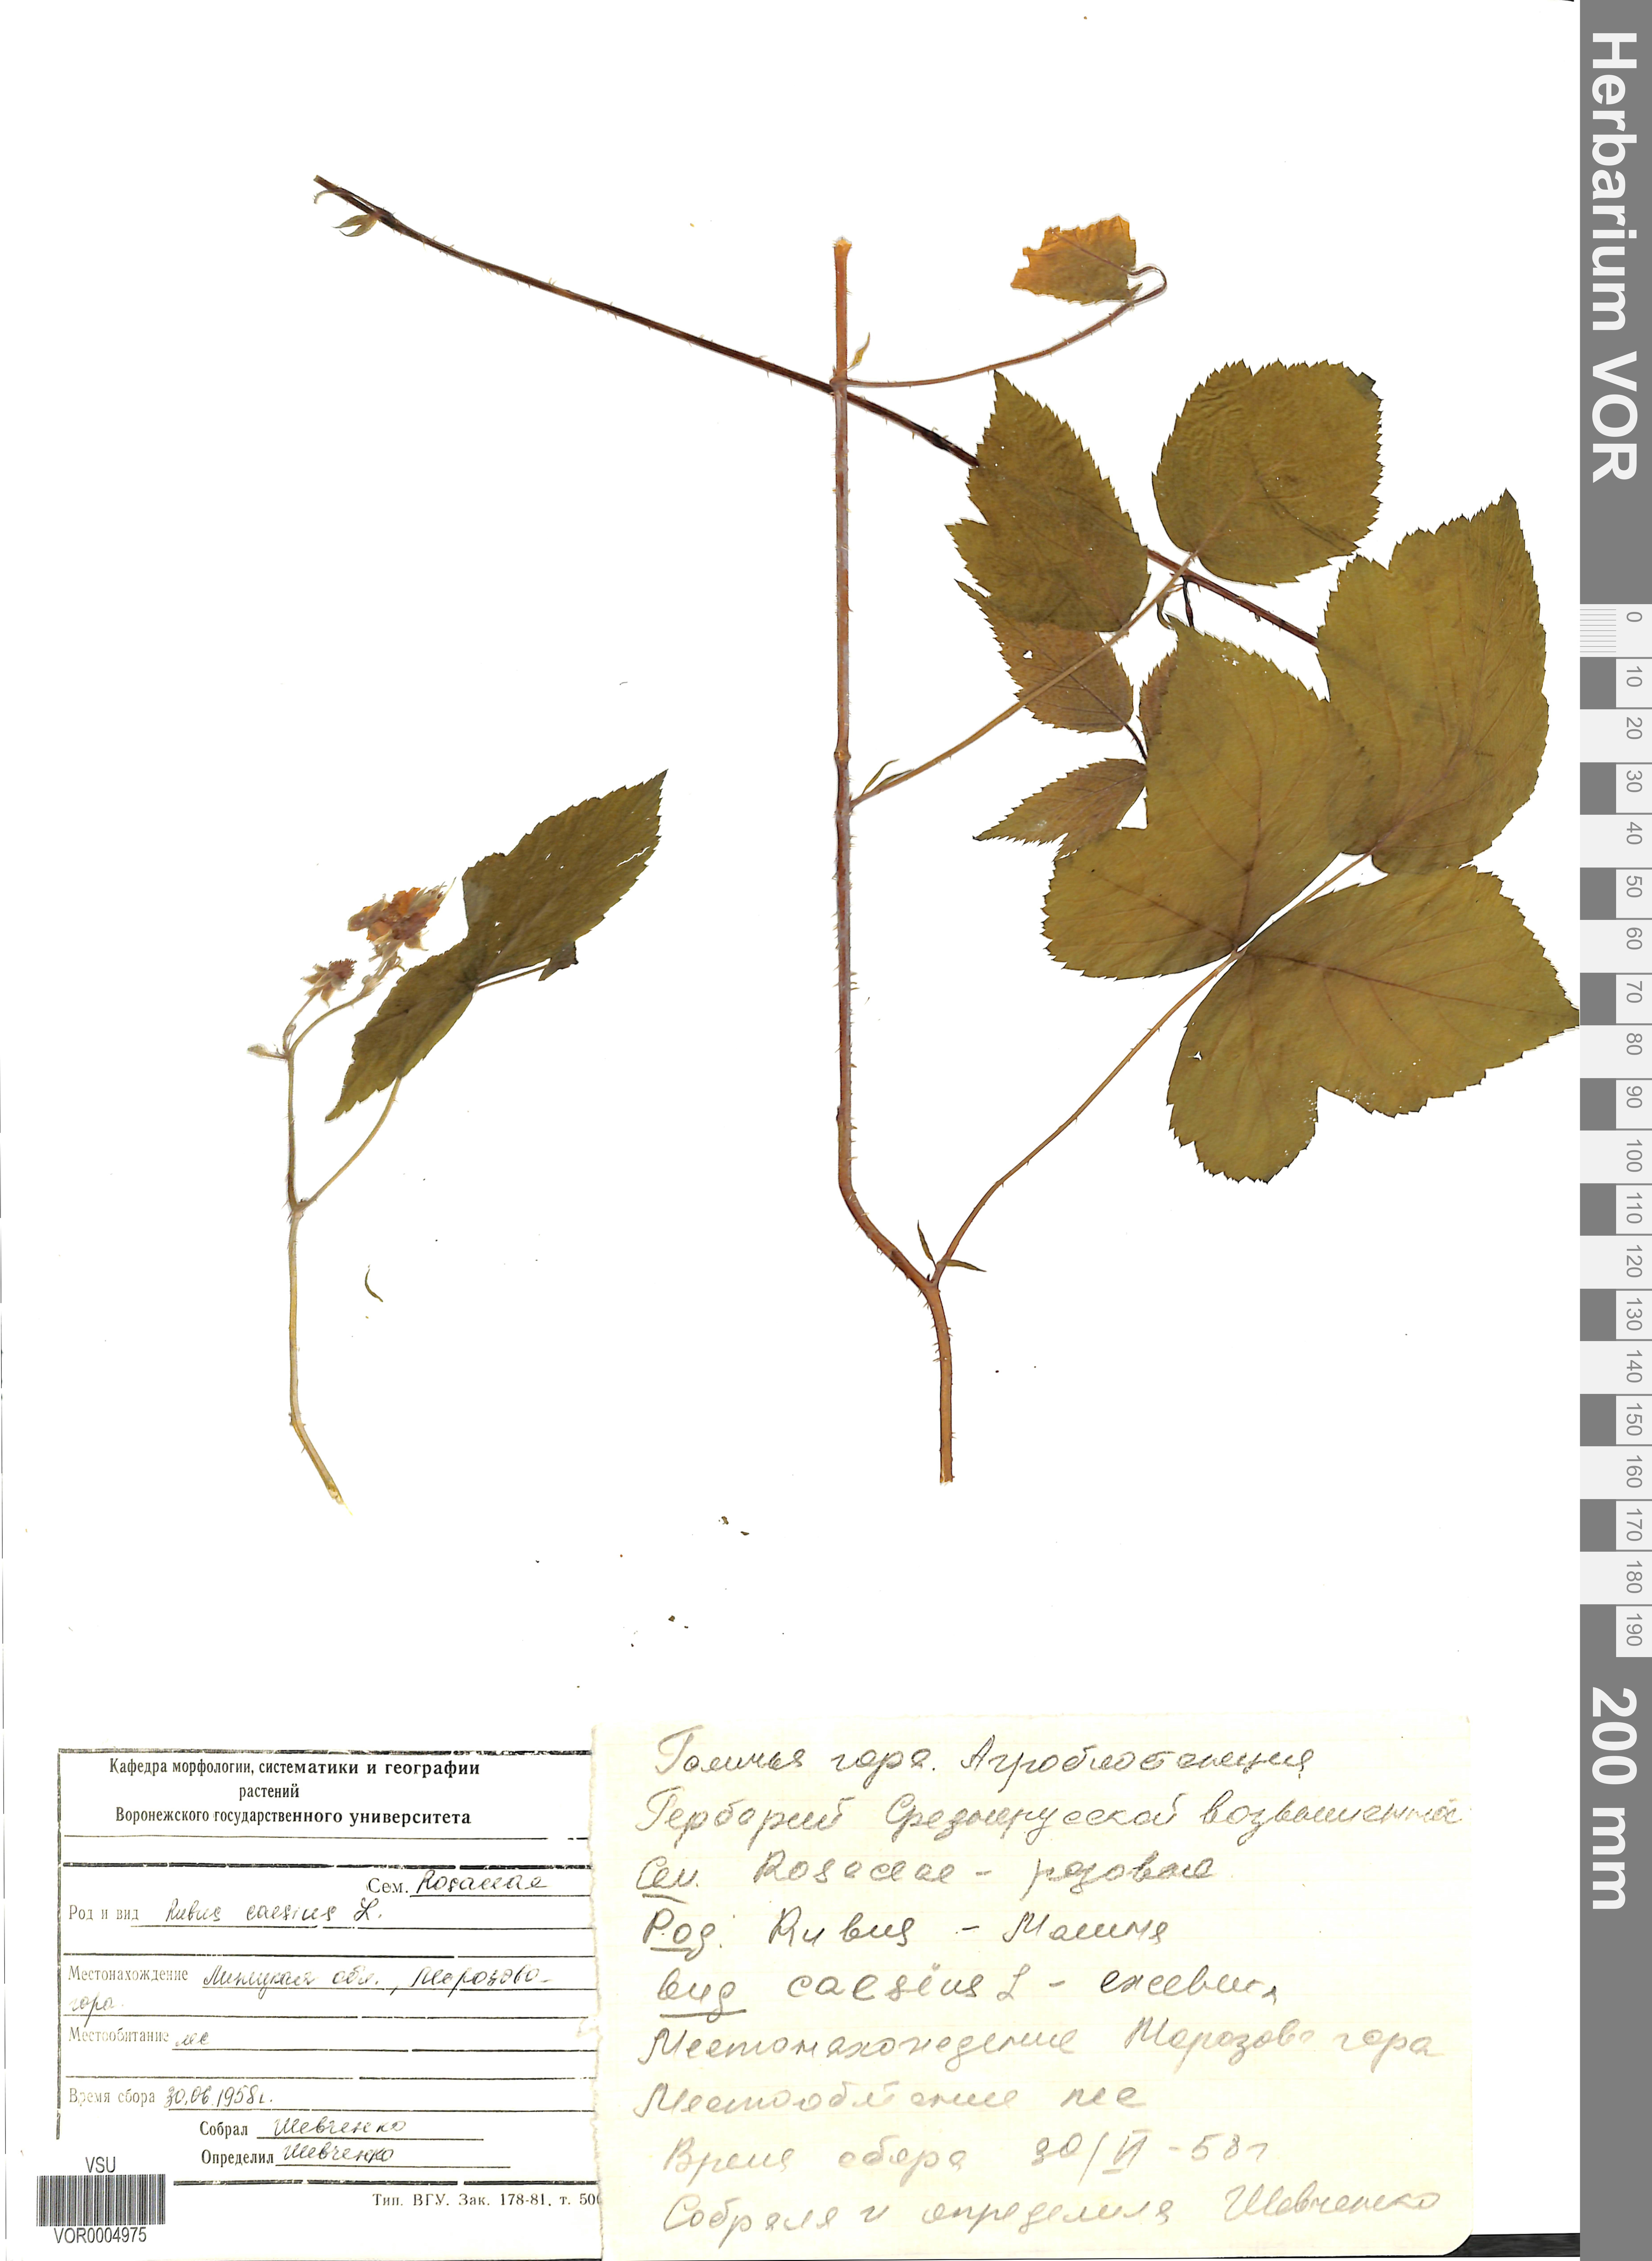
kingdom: Plantae
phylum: Tracheophyta
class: Magnoliopsida
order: Rosales
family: Rosaceae
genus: Rubus
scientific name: Rubus caesius
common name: Dewberry
